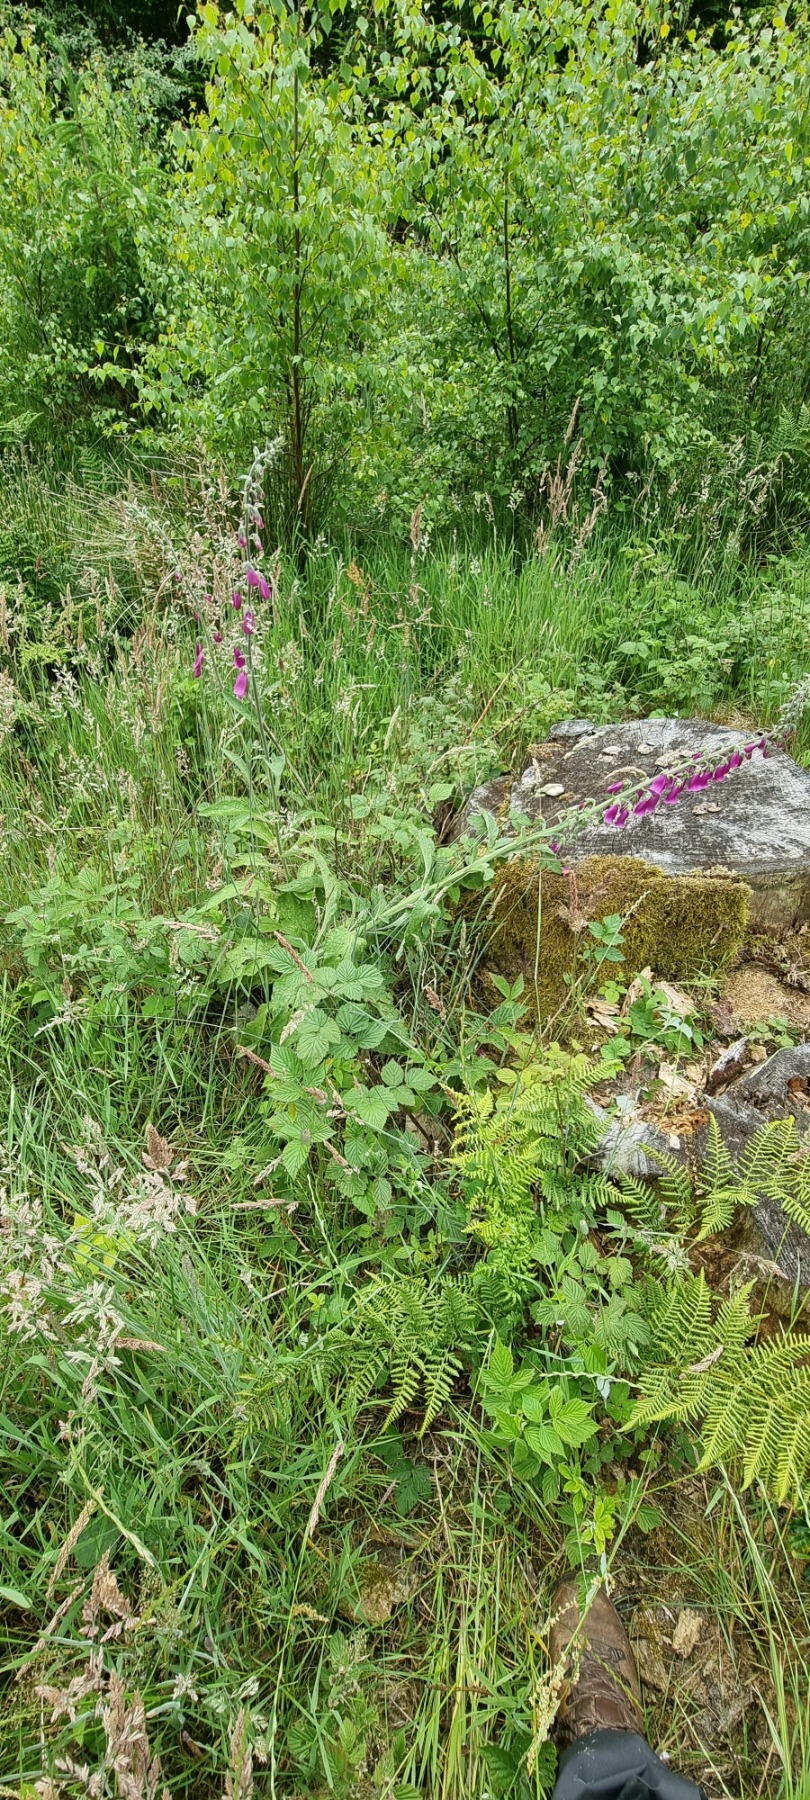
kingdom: Plantae
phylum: Tracheophyta
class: Magnoliopsida
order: Lamiales
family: Plantaginaceae
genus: Digitalis
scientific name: Digitalis purpurea
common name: Almindelig fingerbøl
